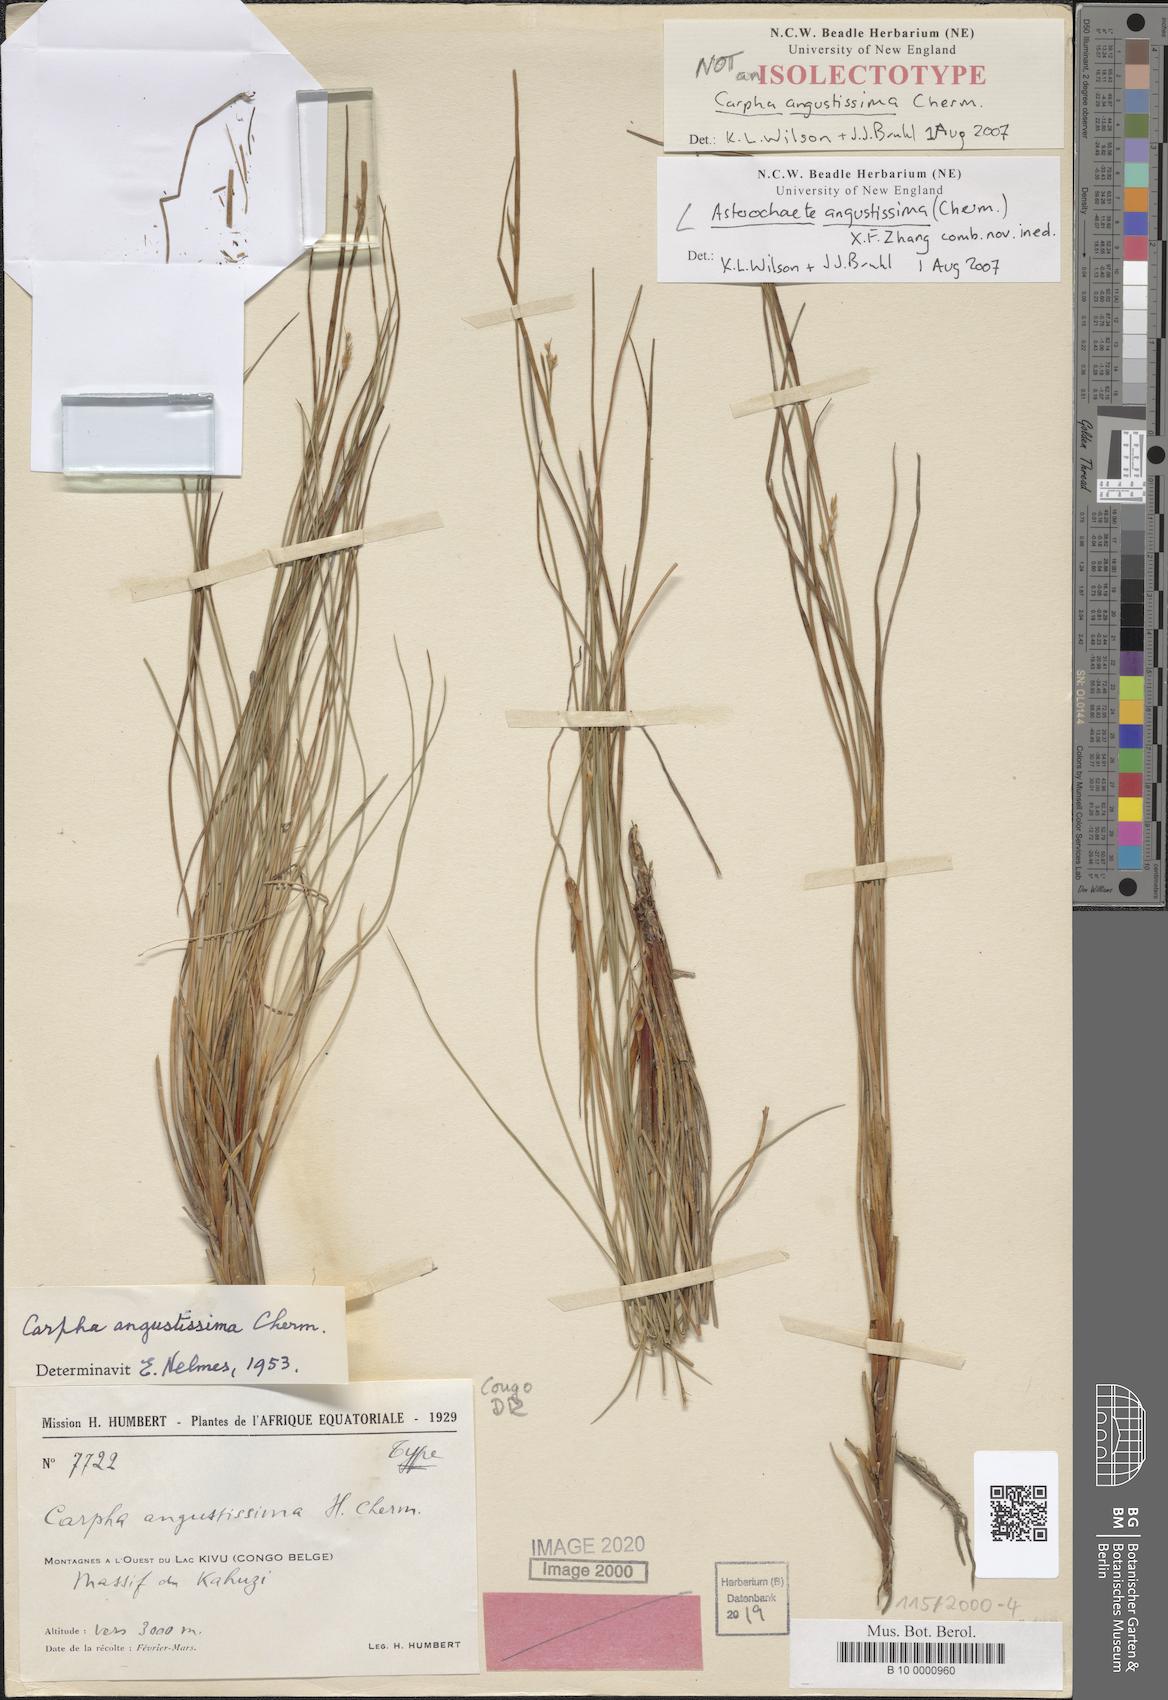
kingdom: Plantae
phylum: Tracheophyta
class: Liliopsida
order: Poales
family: Cyperaceae
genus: Carpha
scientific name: Carpha
